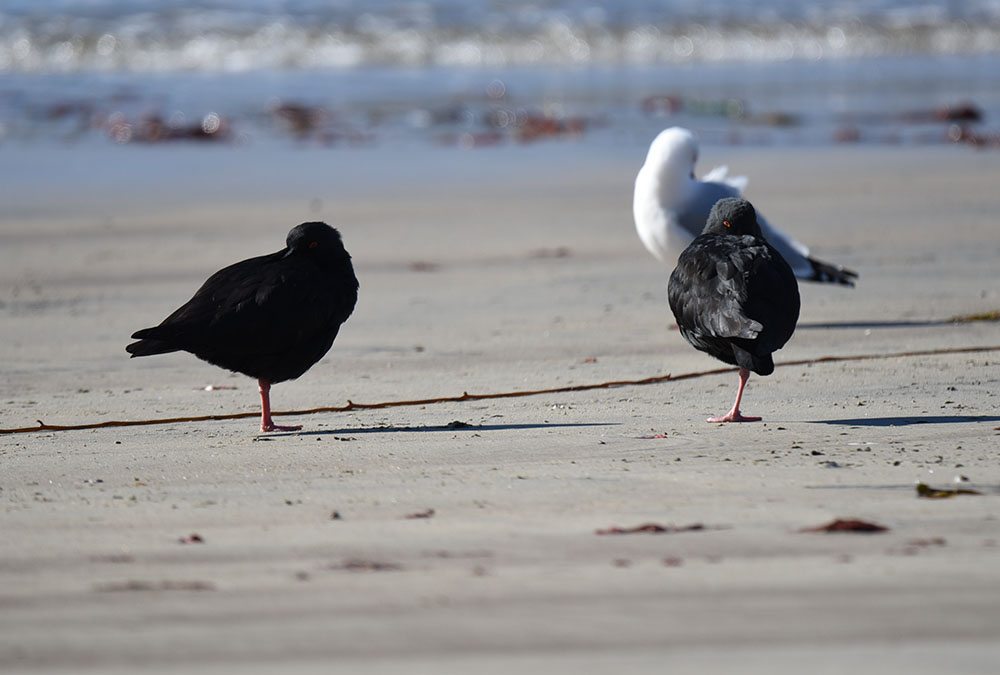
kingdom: Animalia
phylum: Chordata
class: Aves
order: Charadriiformes
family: Haematopodidae
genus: Haematopus
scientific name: Haematopus unicolor
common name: Variable oystercatcher
